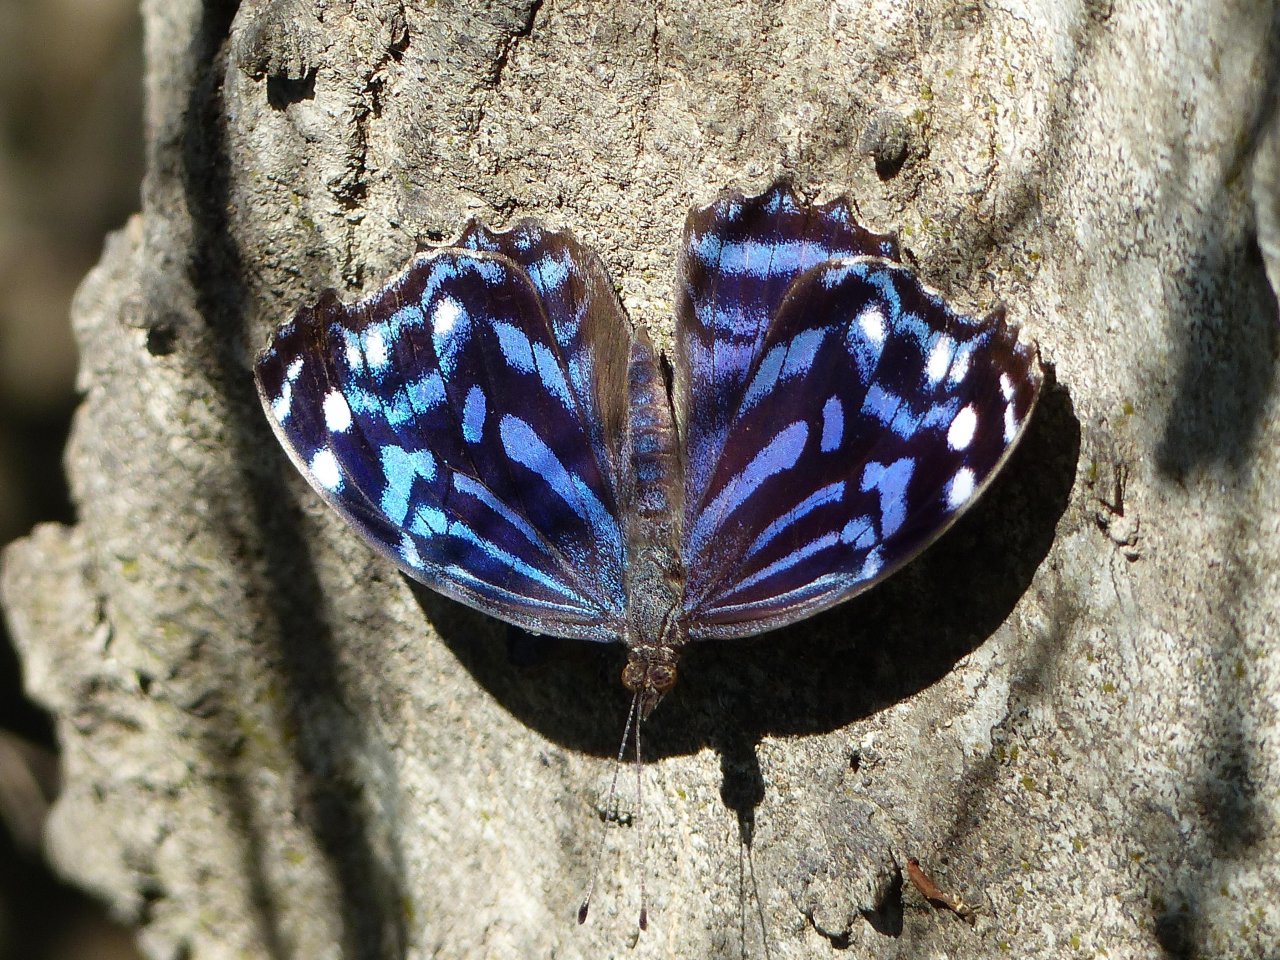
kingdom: Animalia
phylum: Arthropoda
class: Insecta
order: Lepidoptera
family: Nymphalidae
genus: Myscelia
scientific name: Myscelia ethusa
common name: Mexican Bluewing
